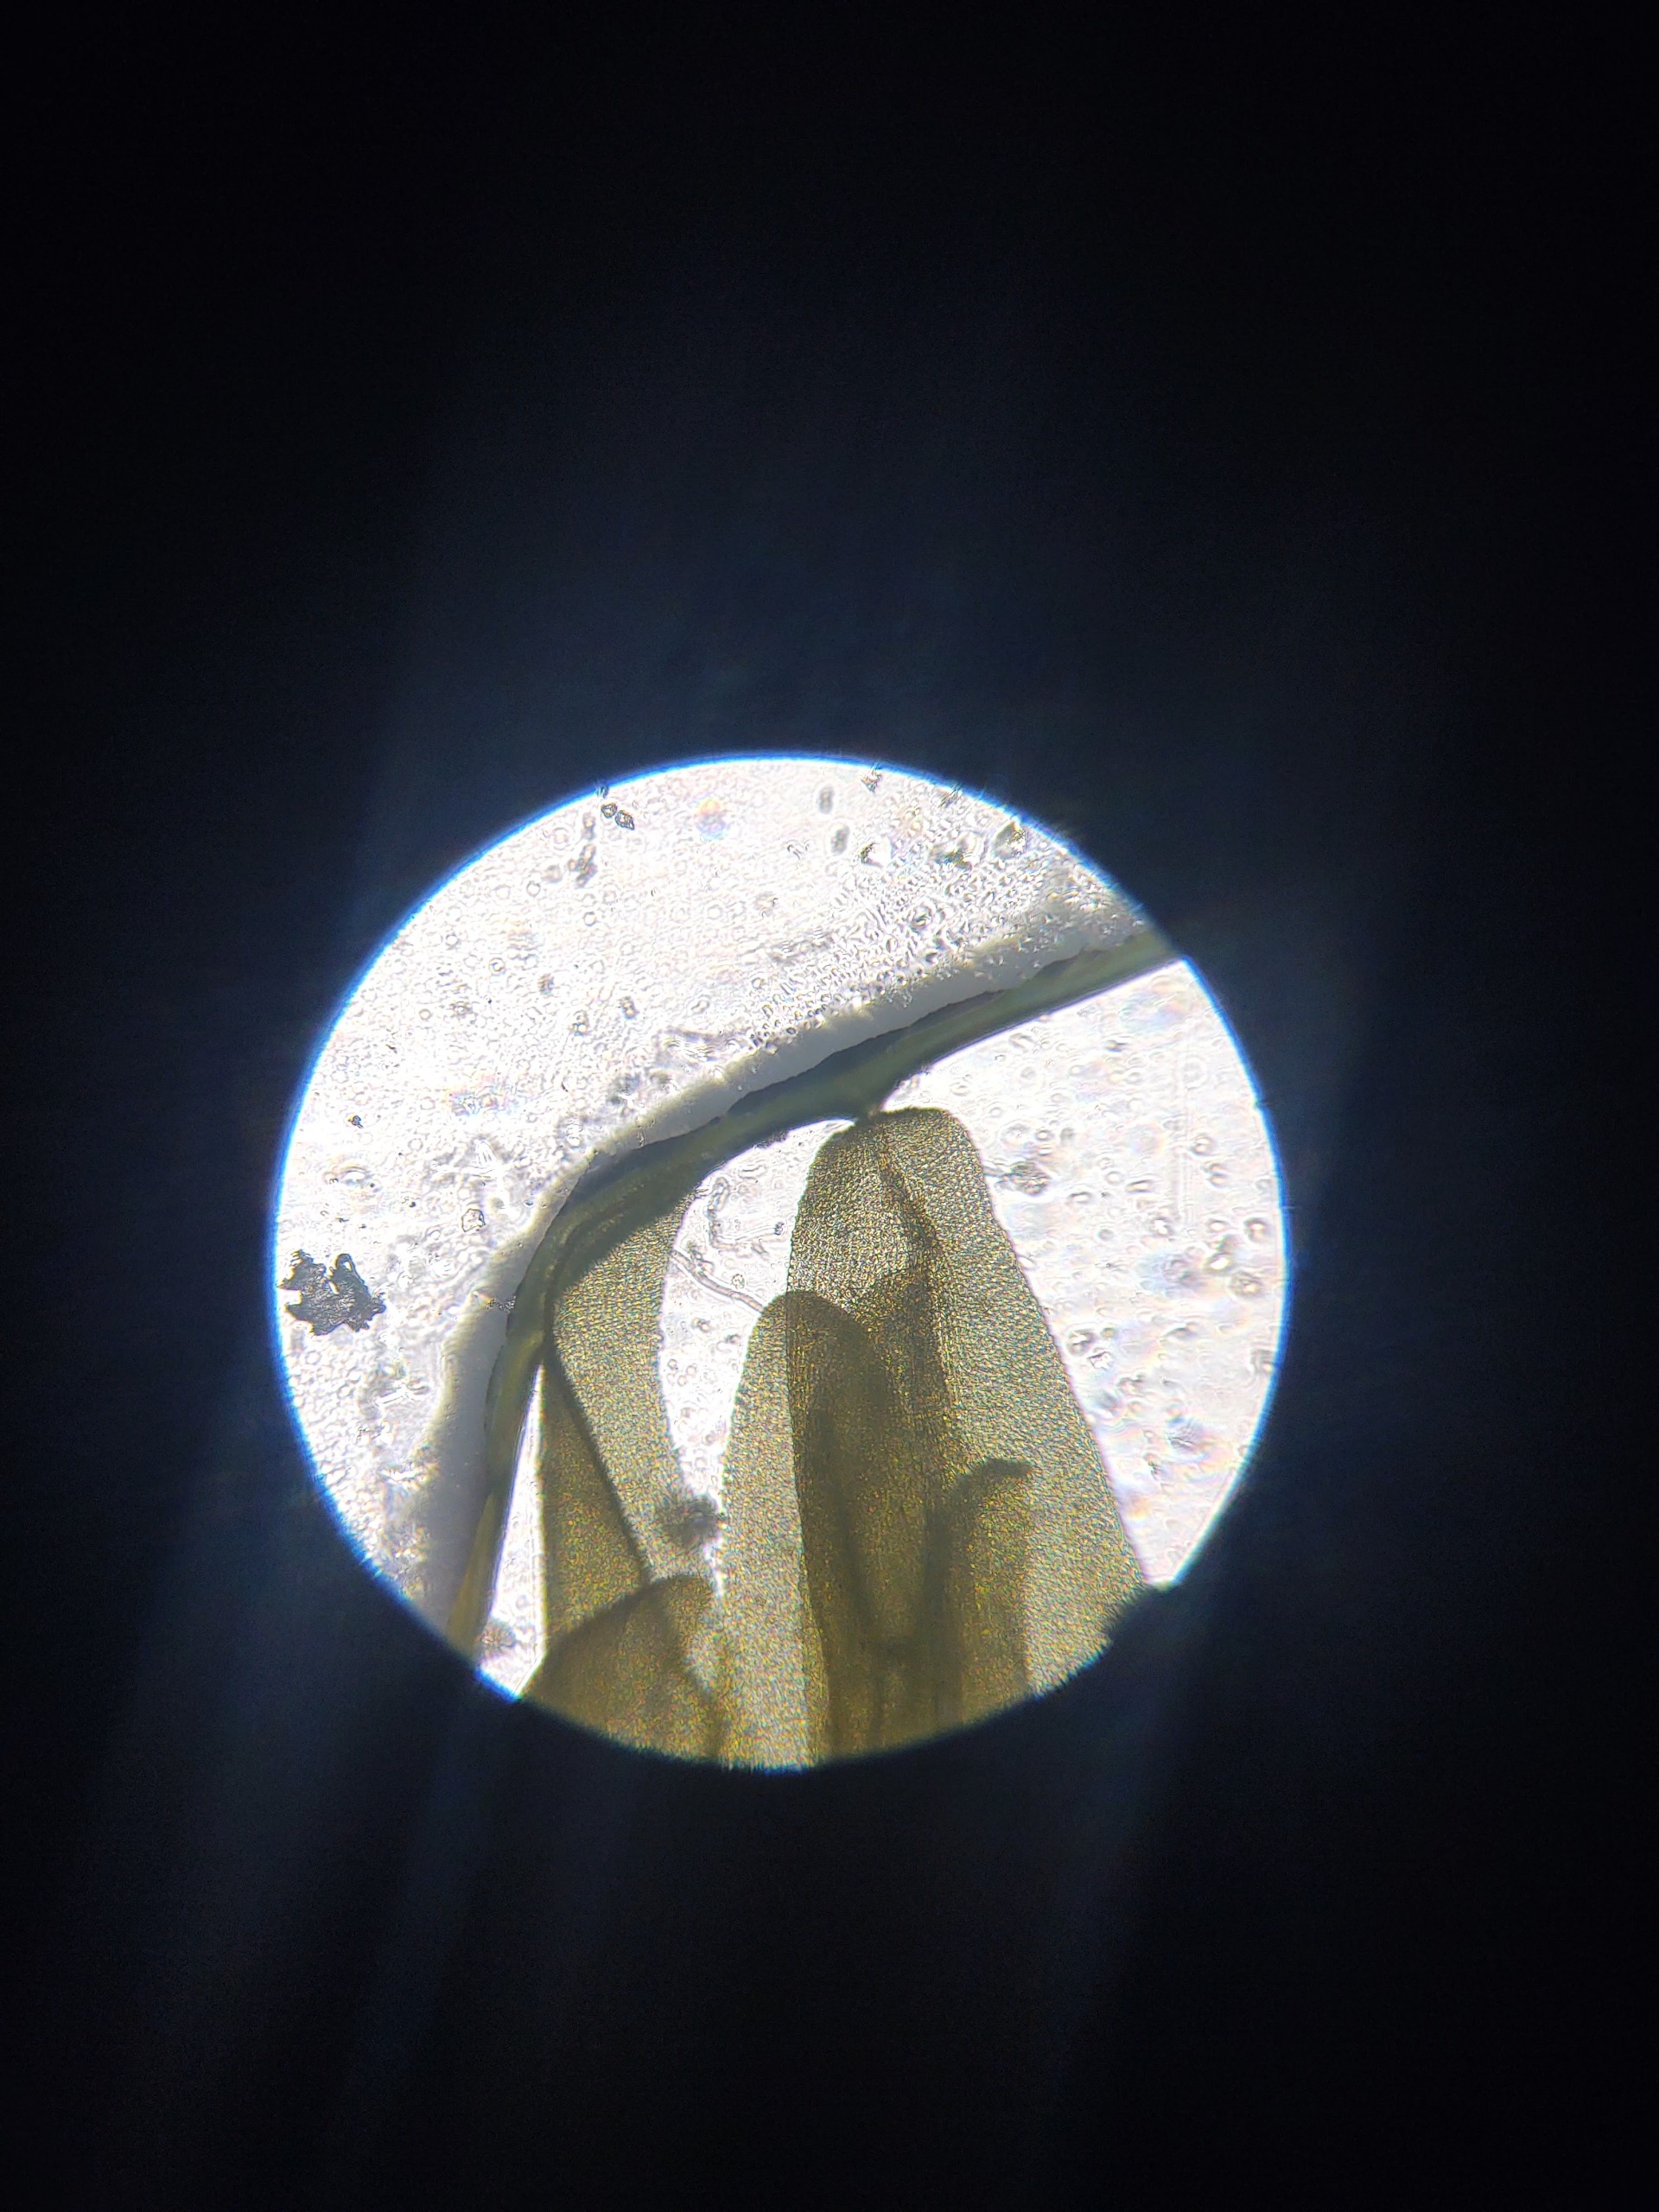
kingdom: Plantae
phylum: Bryophyta
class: Bryopsida
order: Aulacomniales
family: Aulacomniaceae
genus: Aulacomnium
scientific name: Aulacomnium palustre
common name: Almindelig filtmos
